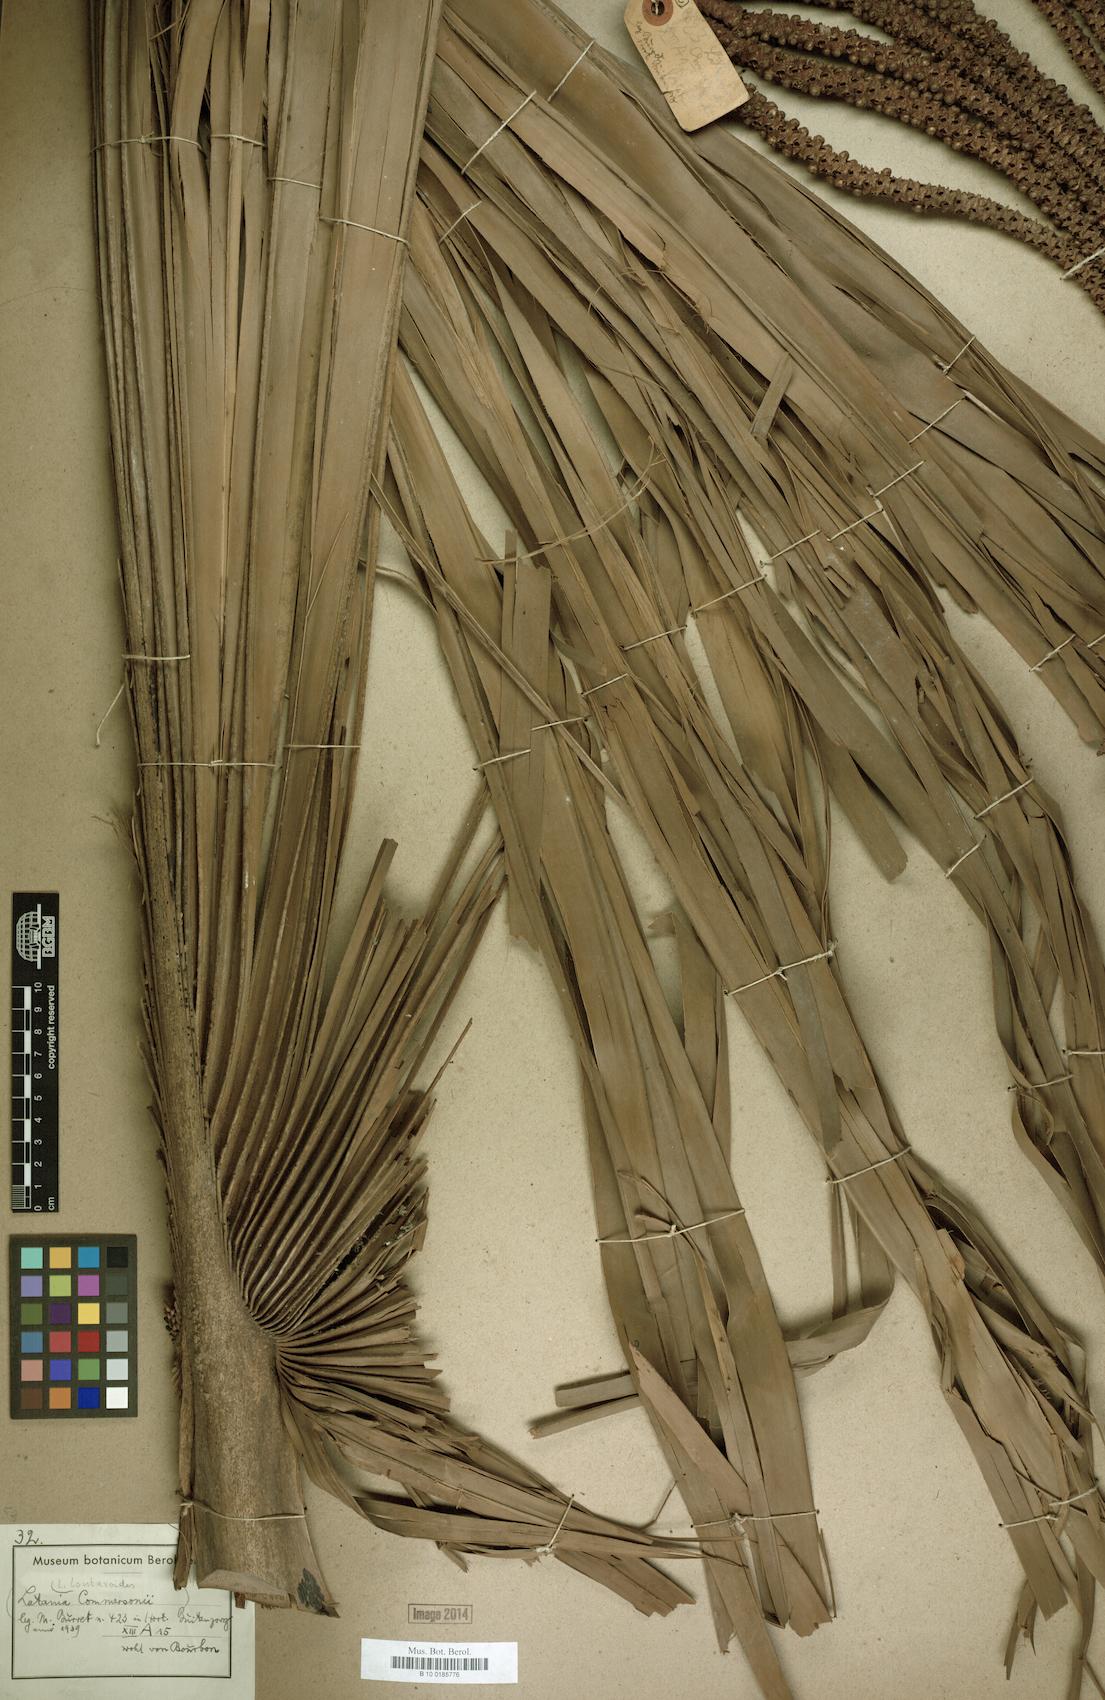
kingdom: Plantae
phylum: Tracheophyta
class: Liliopsida
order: Arecales
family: Arecaceae
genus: Latania
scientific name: Latania lontaroides
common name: Red latan
